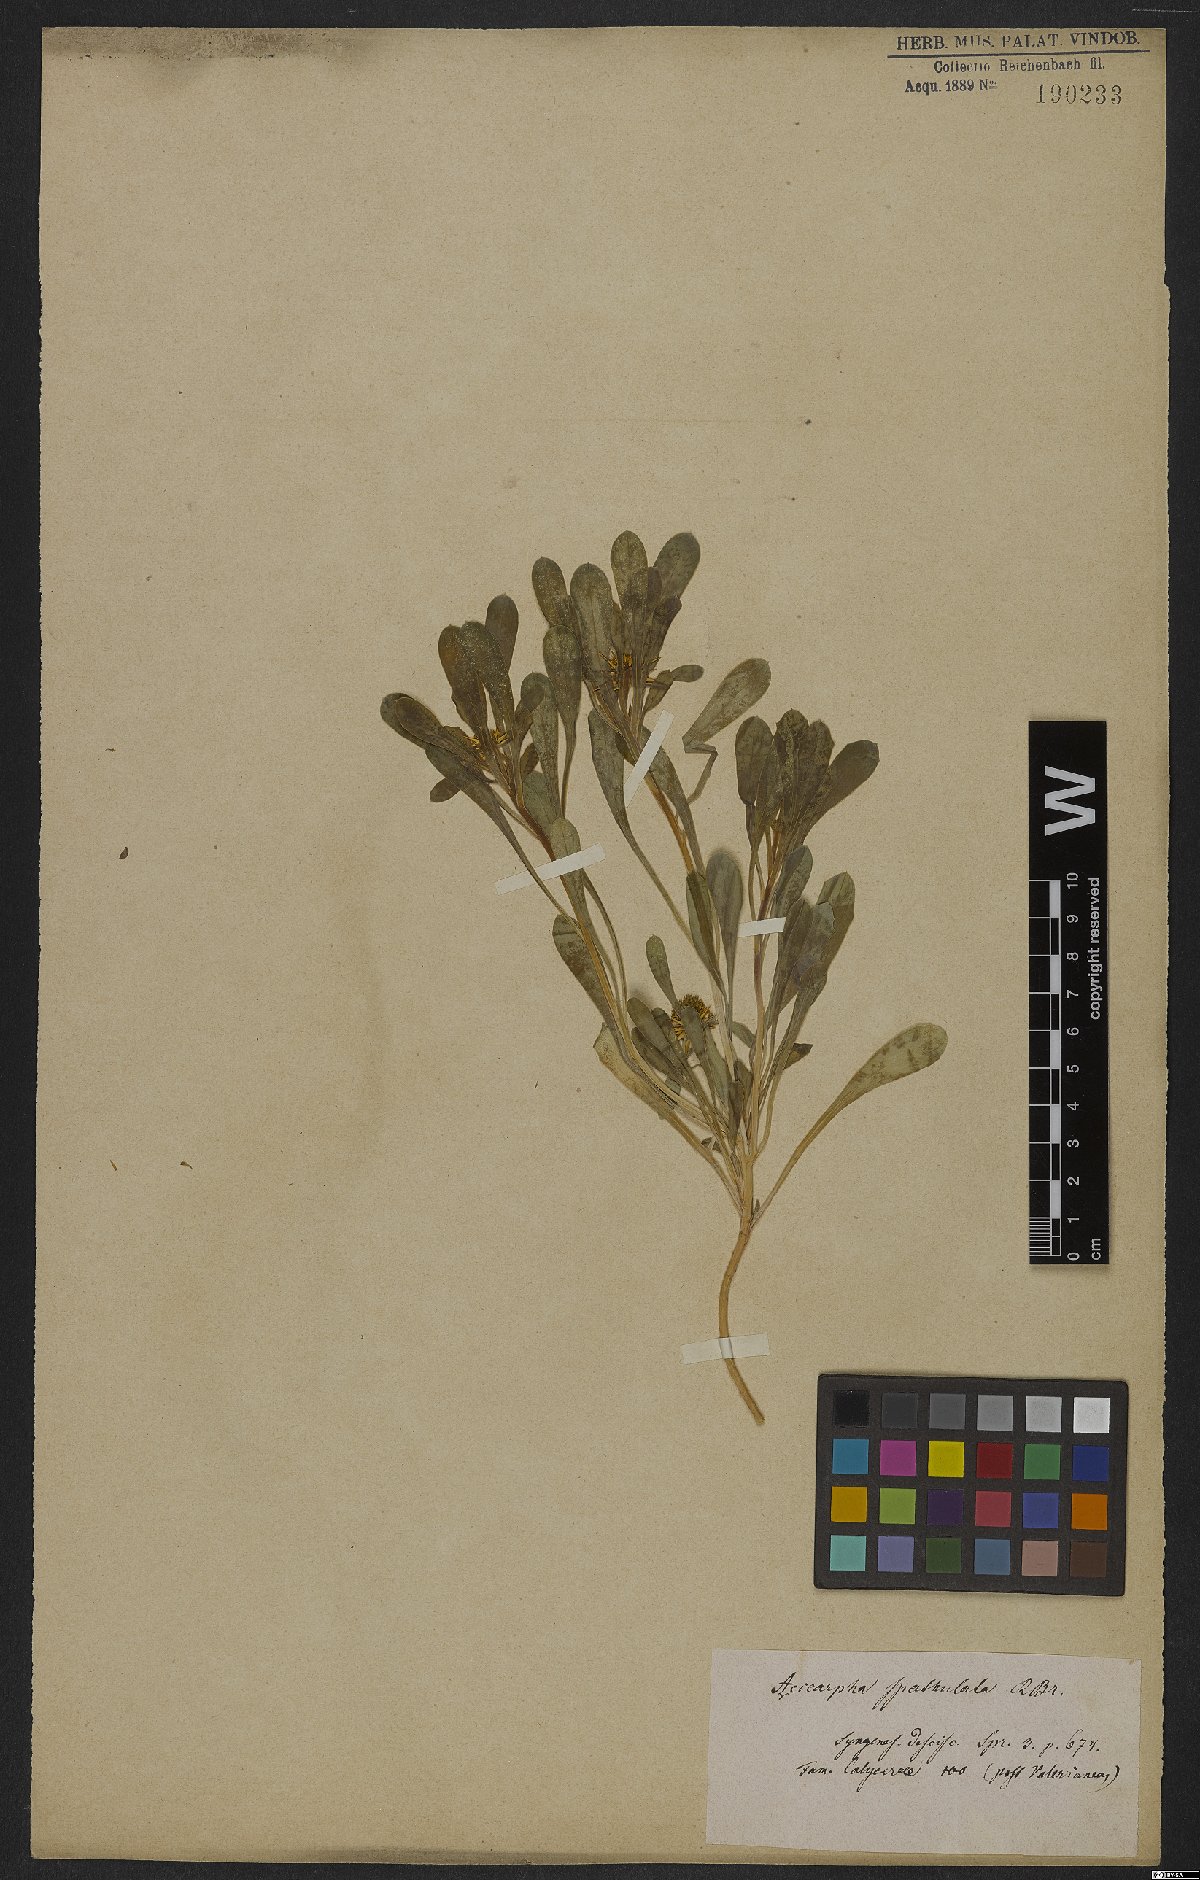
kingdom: Plantae
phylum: Tracheophyta
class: Magnoliopsida
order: Asterales
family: Calyceraceae
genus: Acicarpha
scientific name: Acicarpha spathulata
